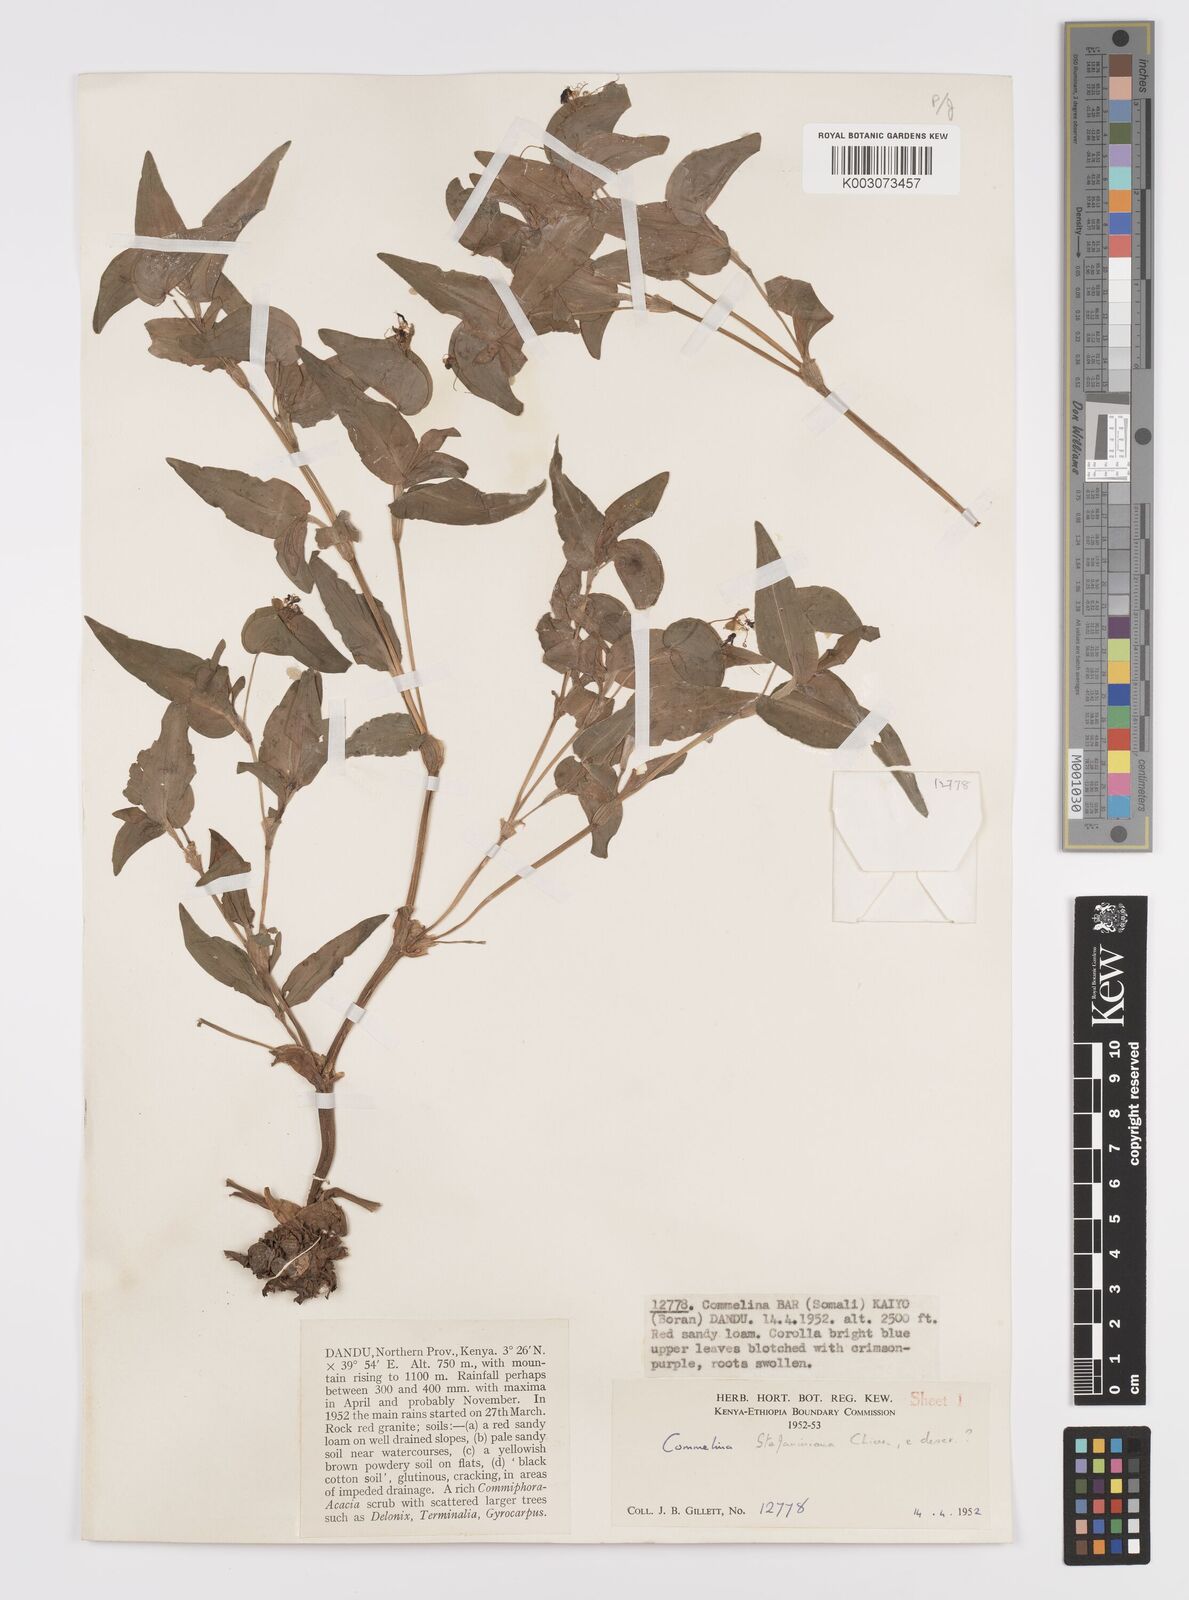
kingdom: Plantae
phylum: Tracheophyta
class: Liliopsida
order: Commelinales
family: Commelinaceae
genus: Commelina
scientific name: Commelina stefaniniana
